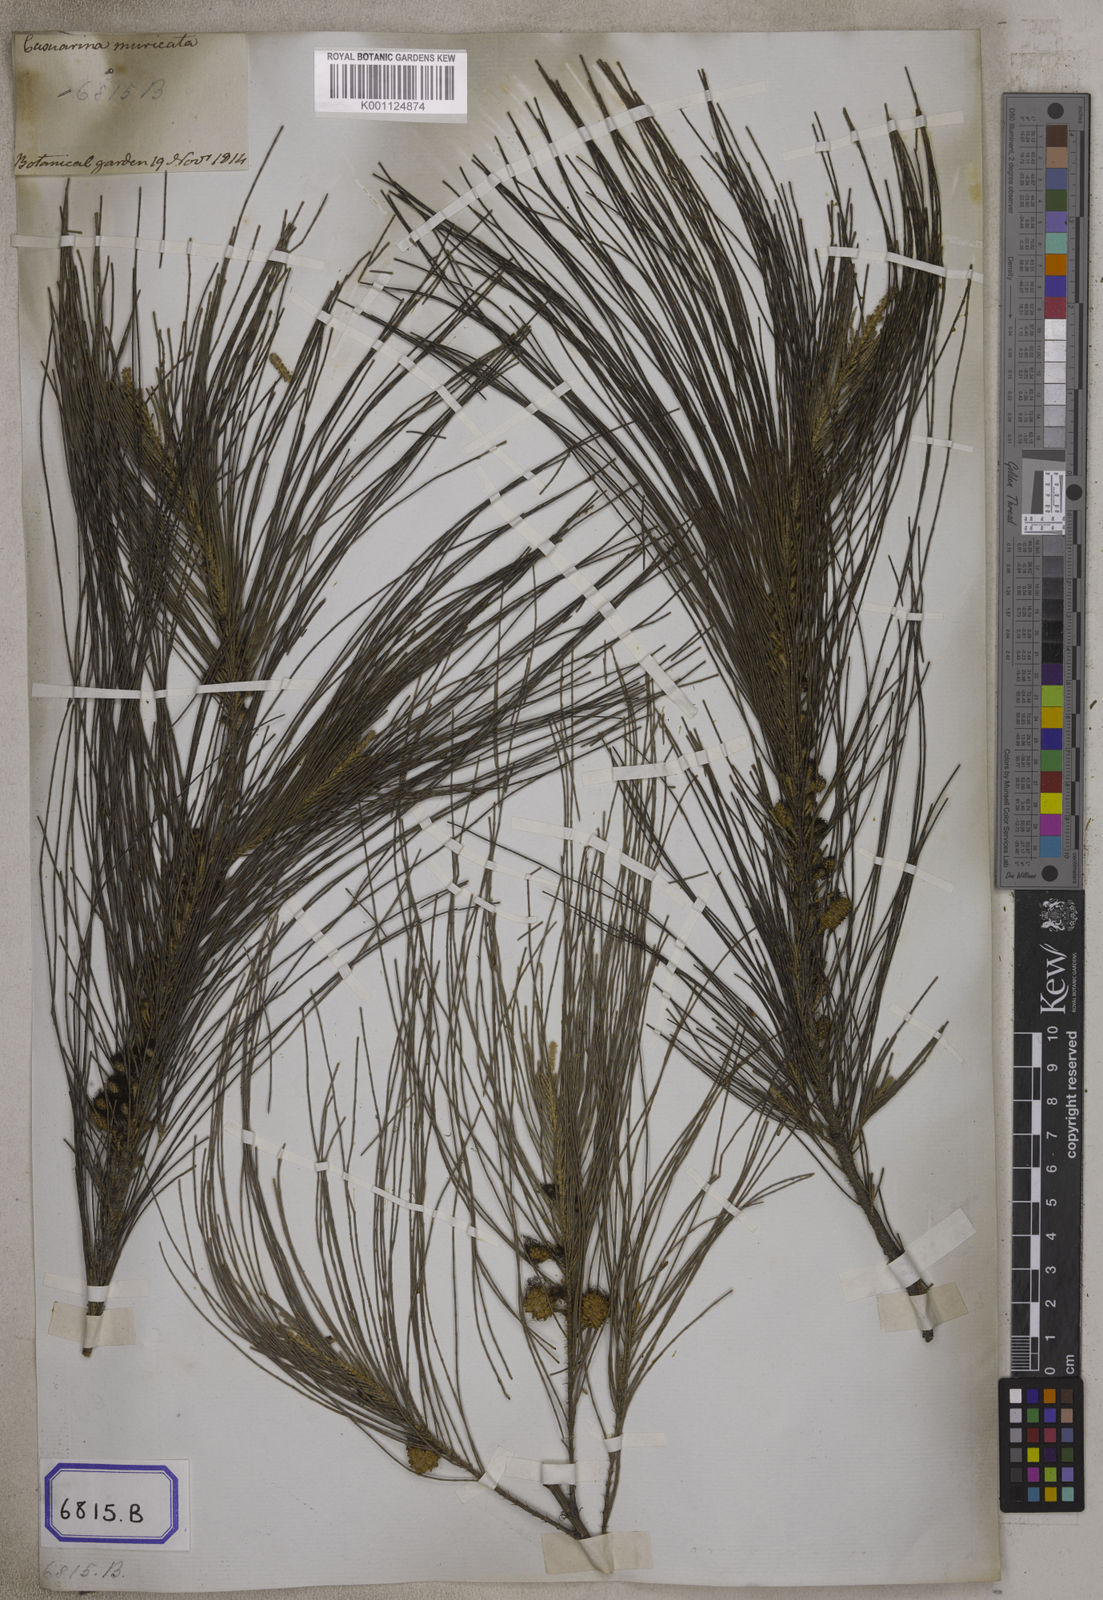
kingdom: Plantae
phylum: Tracheophyta
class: Magnoliopsida
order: Fagales
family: Casuarinaceae
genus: Casuarina
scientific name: Casuarina
